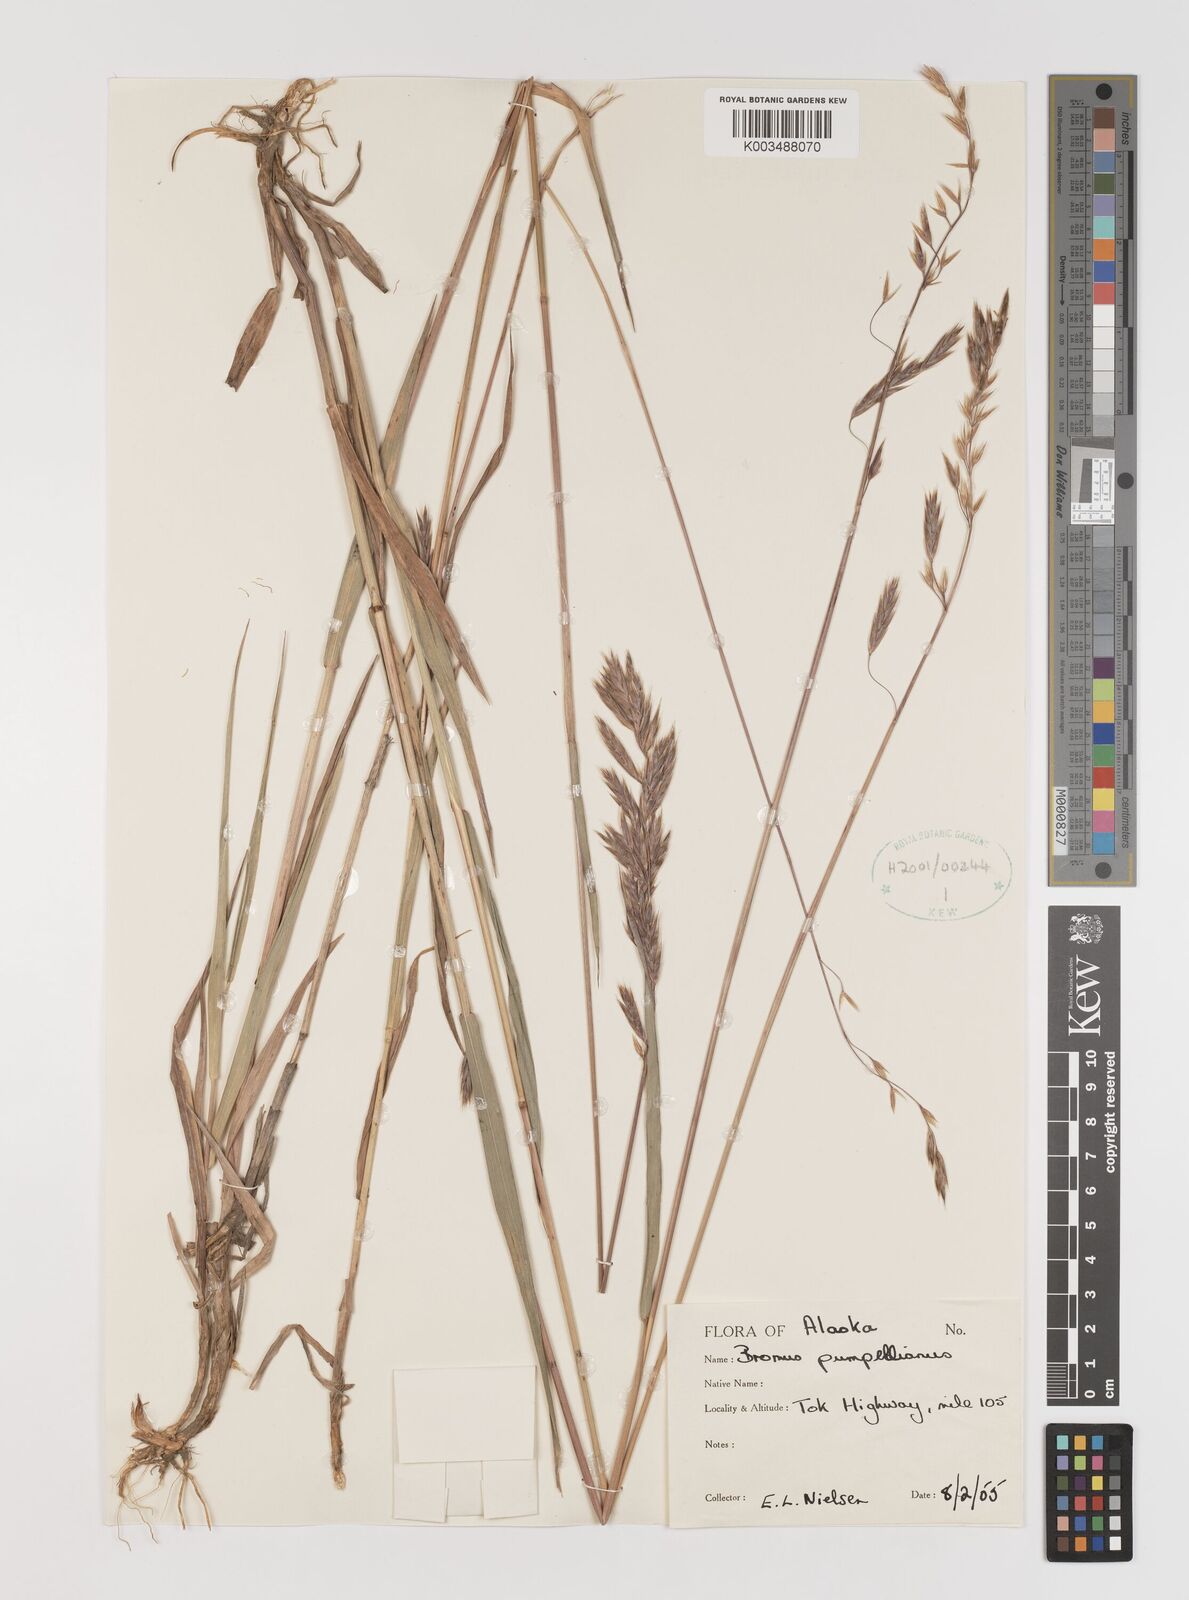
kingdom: Plantae
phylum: Tracheophyta
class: Liliopsida
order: Poales
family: Poaceae
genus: Bromus
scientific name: Bromus pumpellianus
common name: Pumpelly's brome
